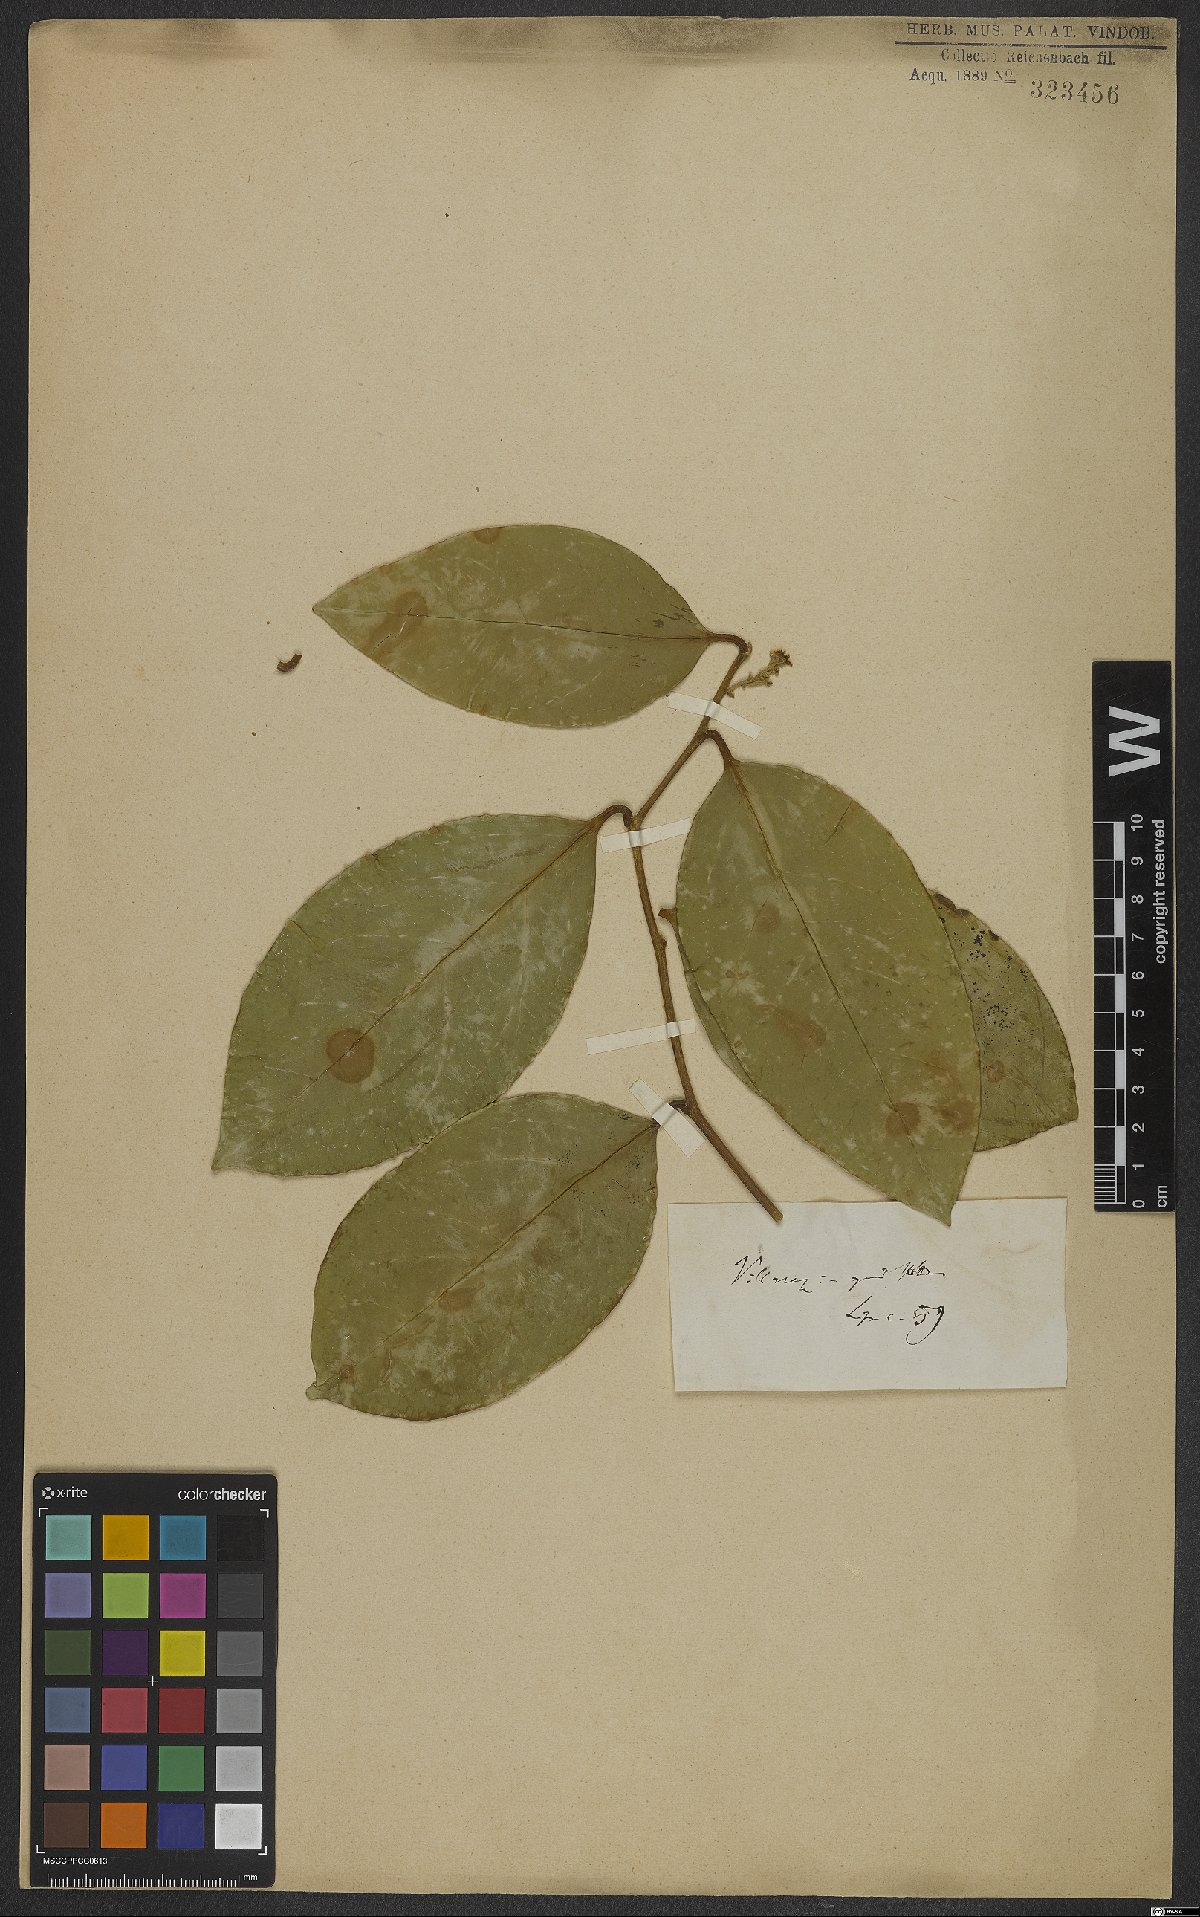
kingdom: Plantae
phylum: Tracheophyta
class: Magnoliopsida
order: Cardiopteridales
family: Cardiopteridaceae
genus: Citronella
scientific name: Citronella paniculata
